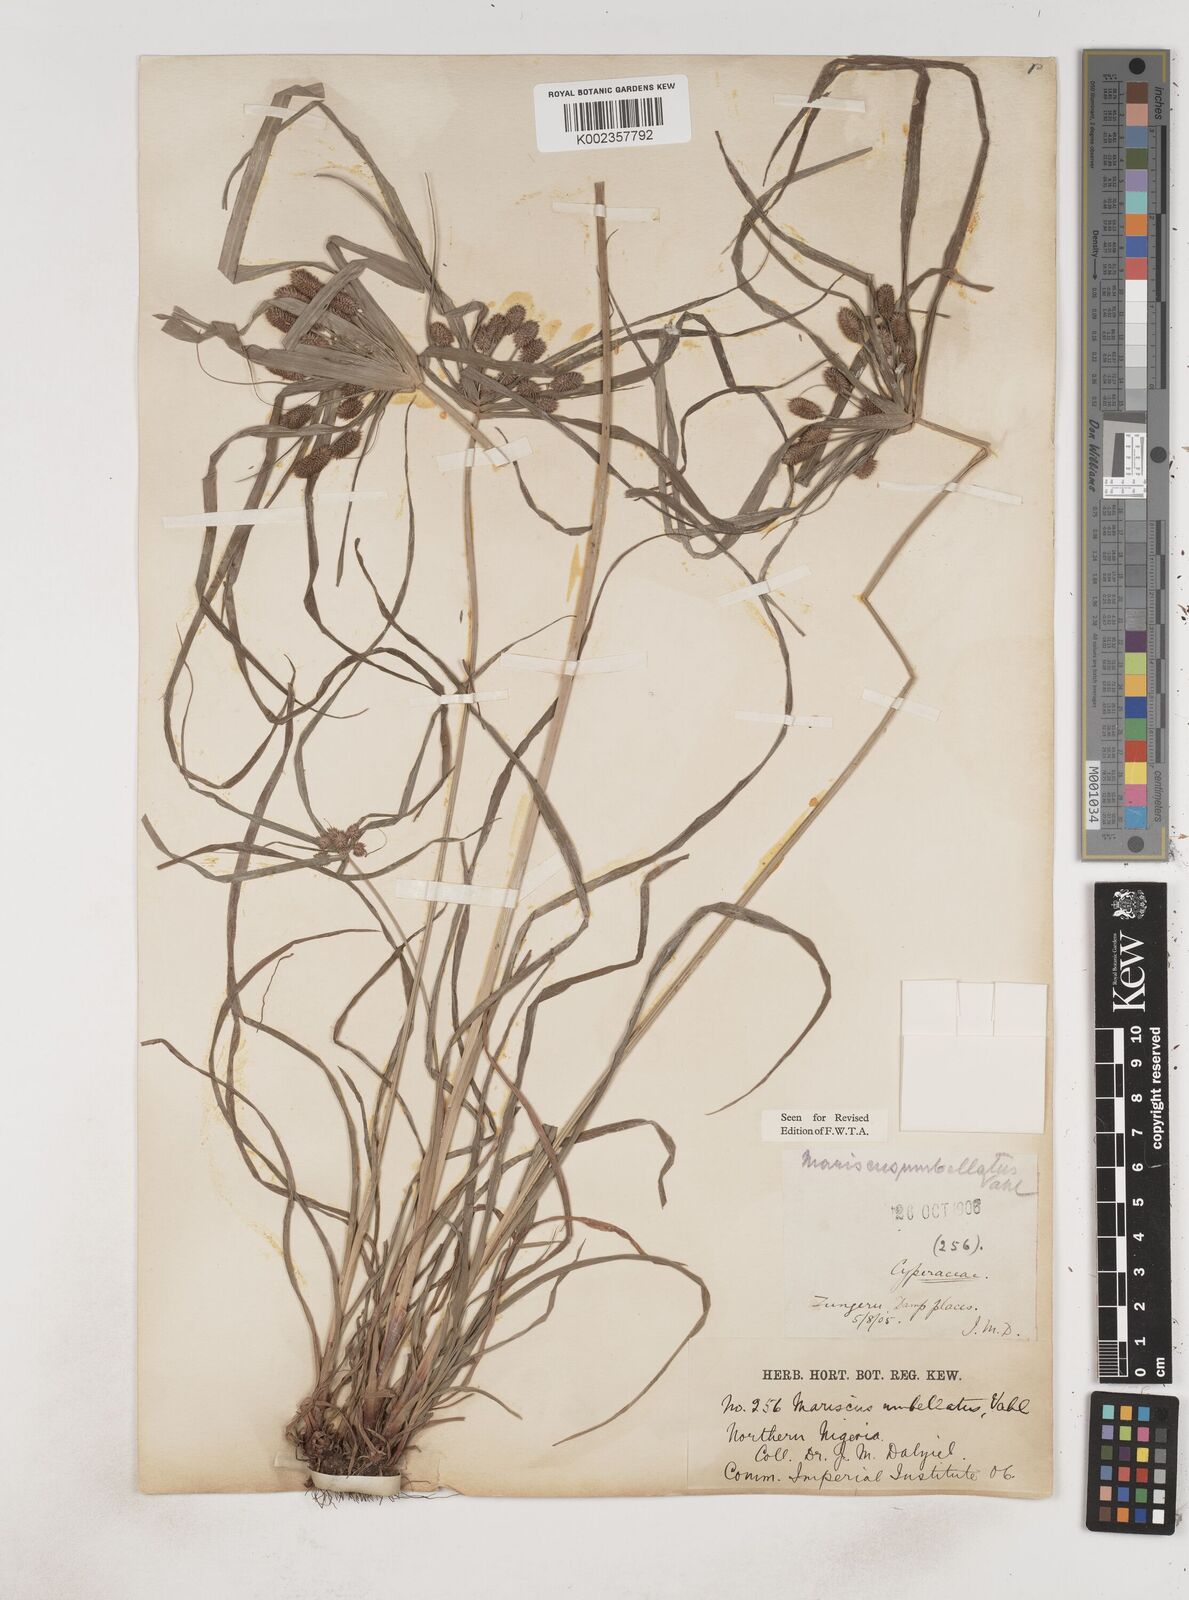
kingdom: Plantae
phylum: Tracheophyta
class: Liliopsida
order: Poales
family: Cyperaceae
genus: Cyperus
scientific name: Cyperus sublimis
